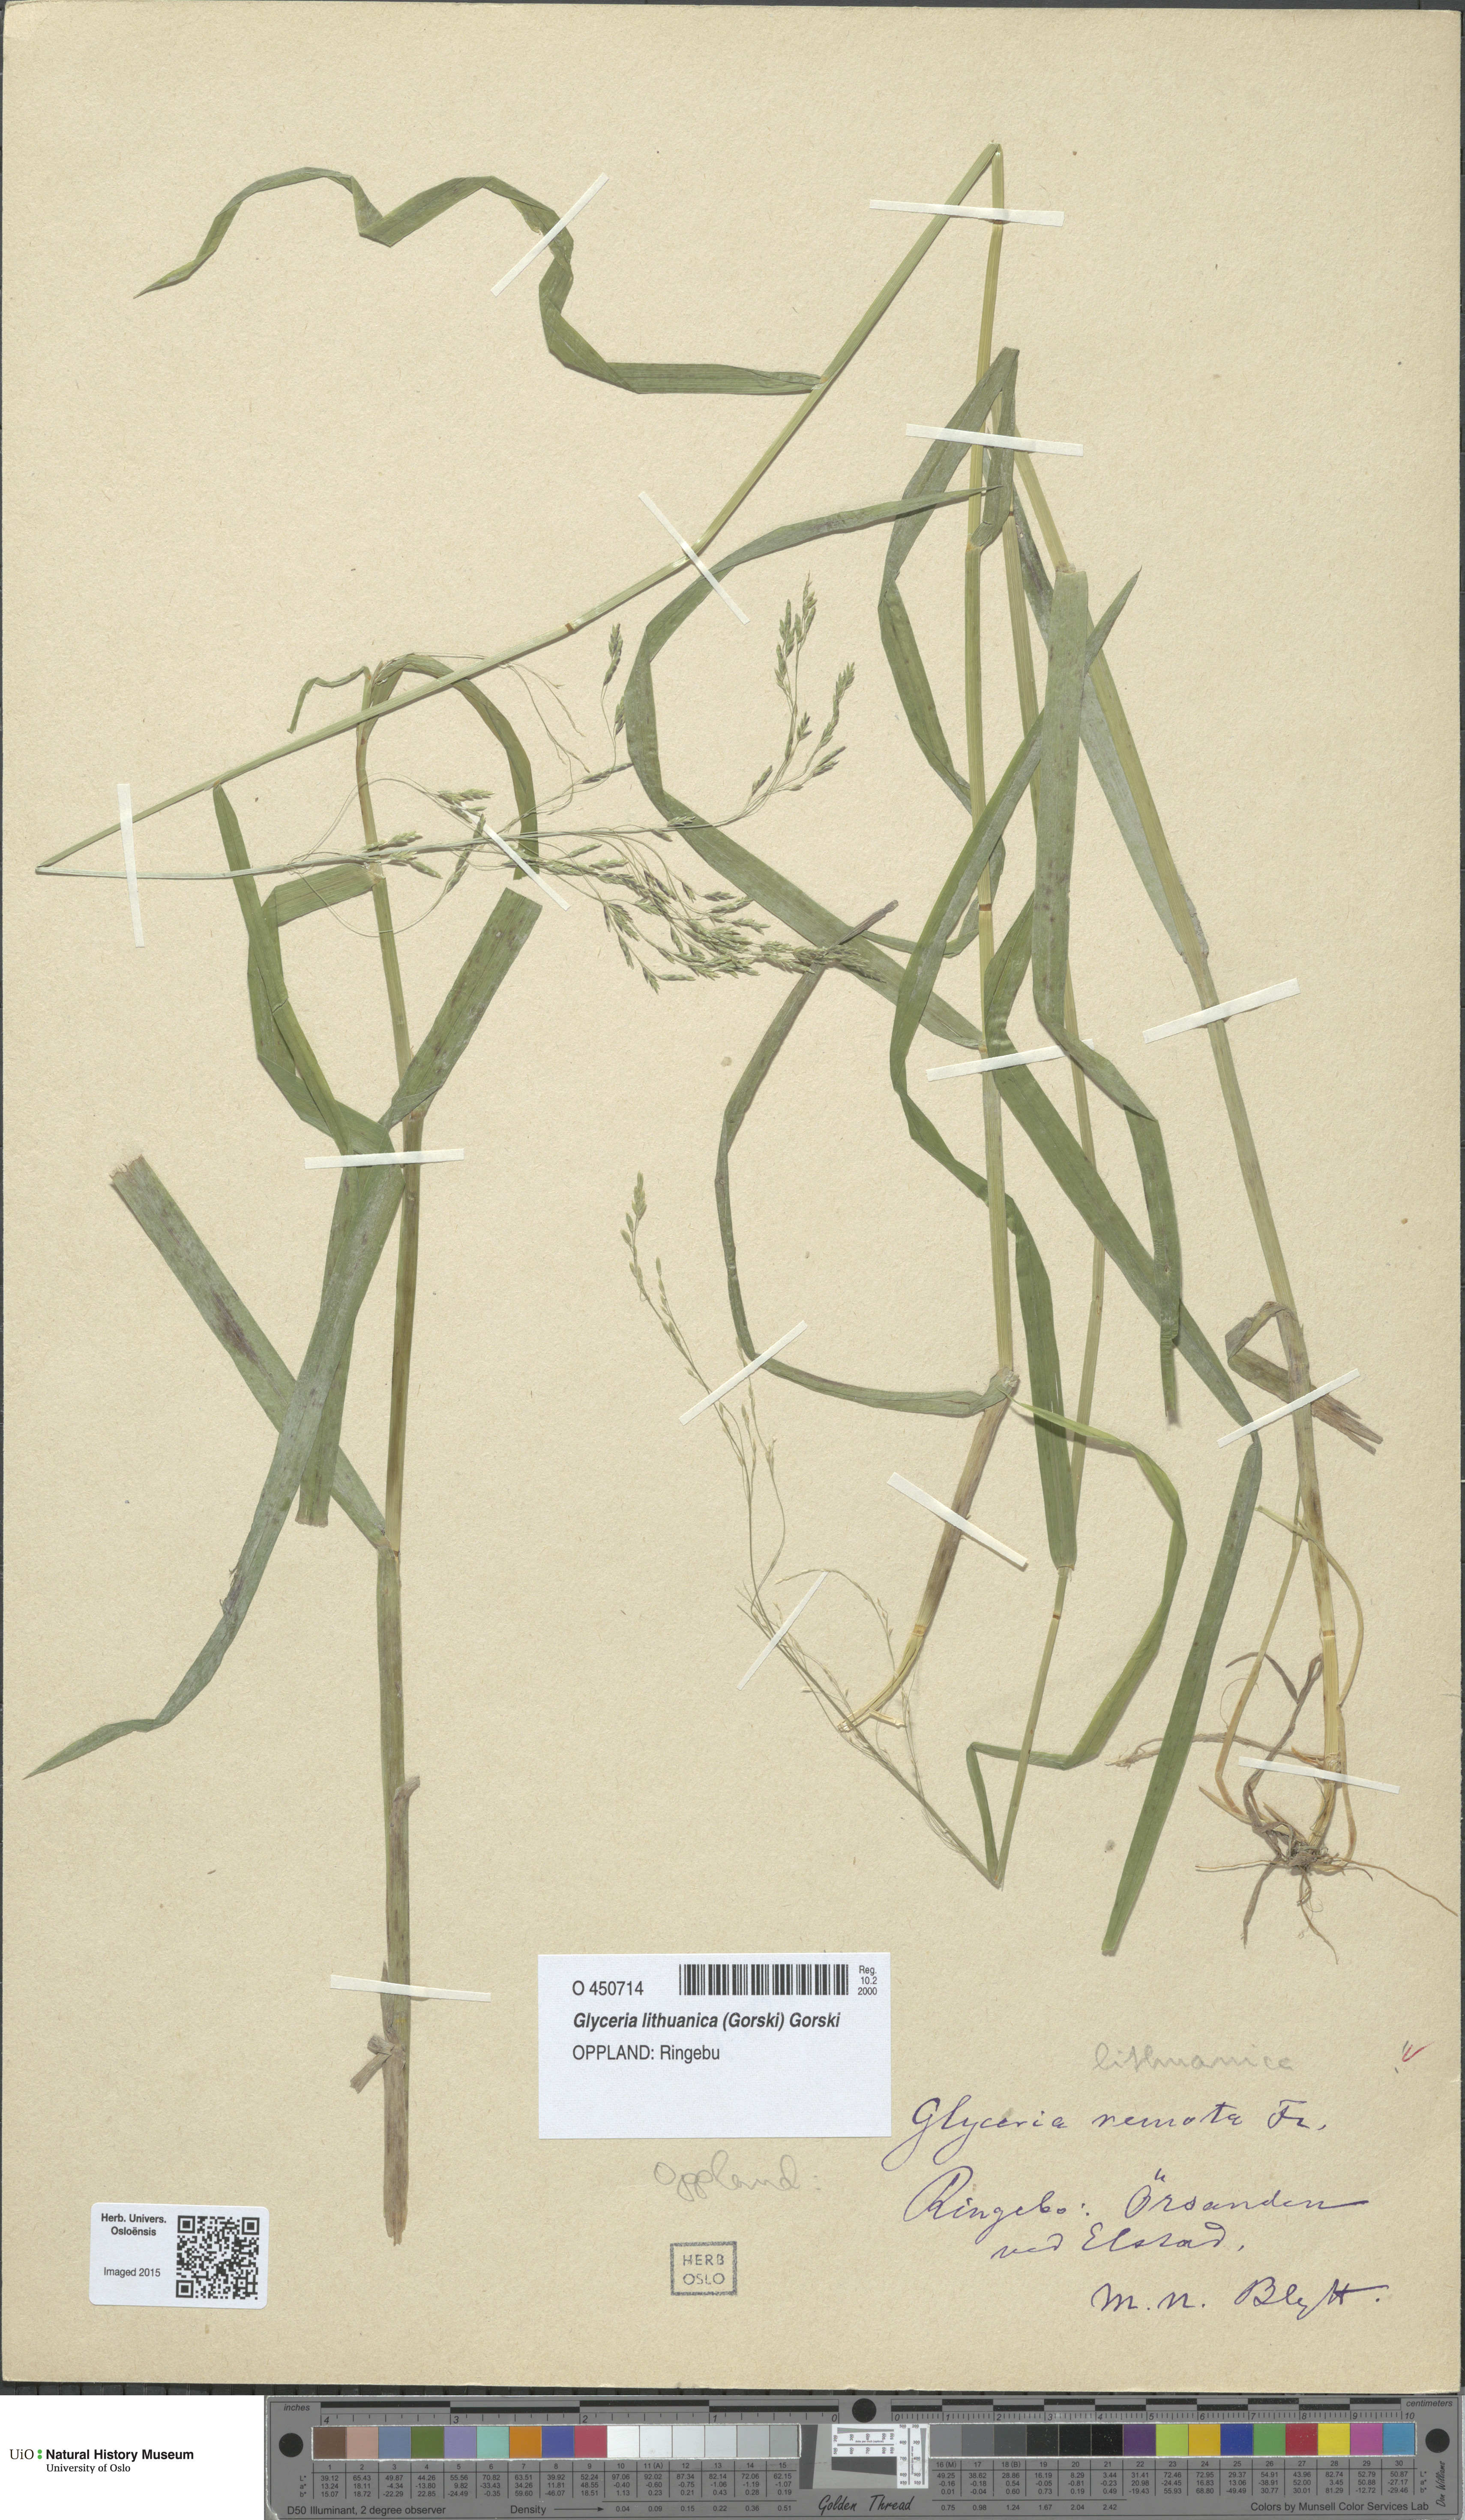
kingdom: Plantae
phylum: Tracheophyta
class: Liliopsida
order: Poales
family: Poaceae
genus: Glyceria
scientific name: Glyceria lithuanica
